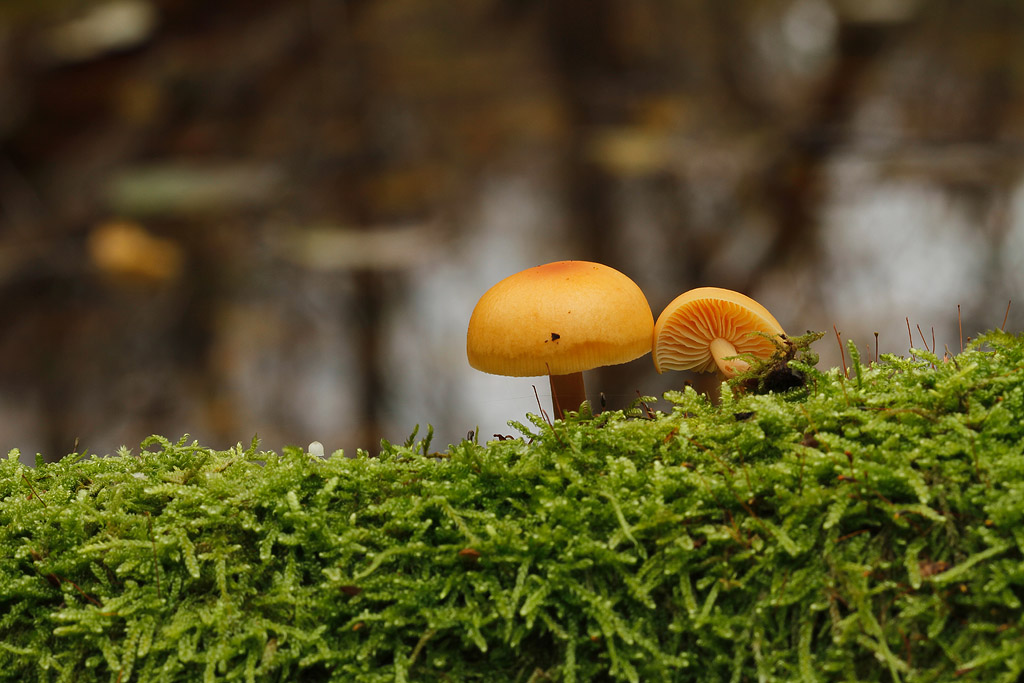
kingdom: Fungi
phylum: Basidiomycota
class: Agaricomycetes
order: Agaricales
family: Physalacriaceae
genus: Flammulina
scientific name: Flammulina velutipes
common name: gul fløjlsfod
